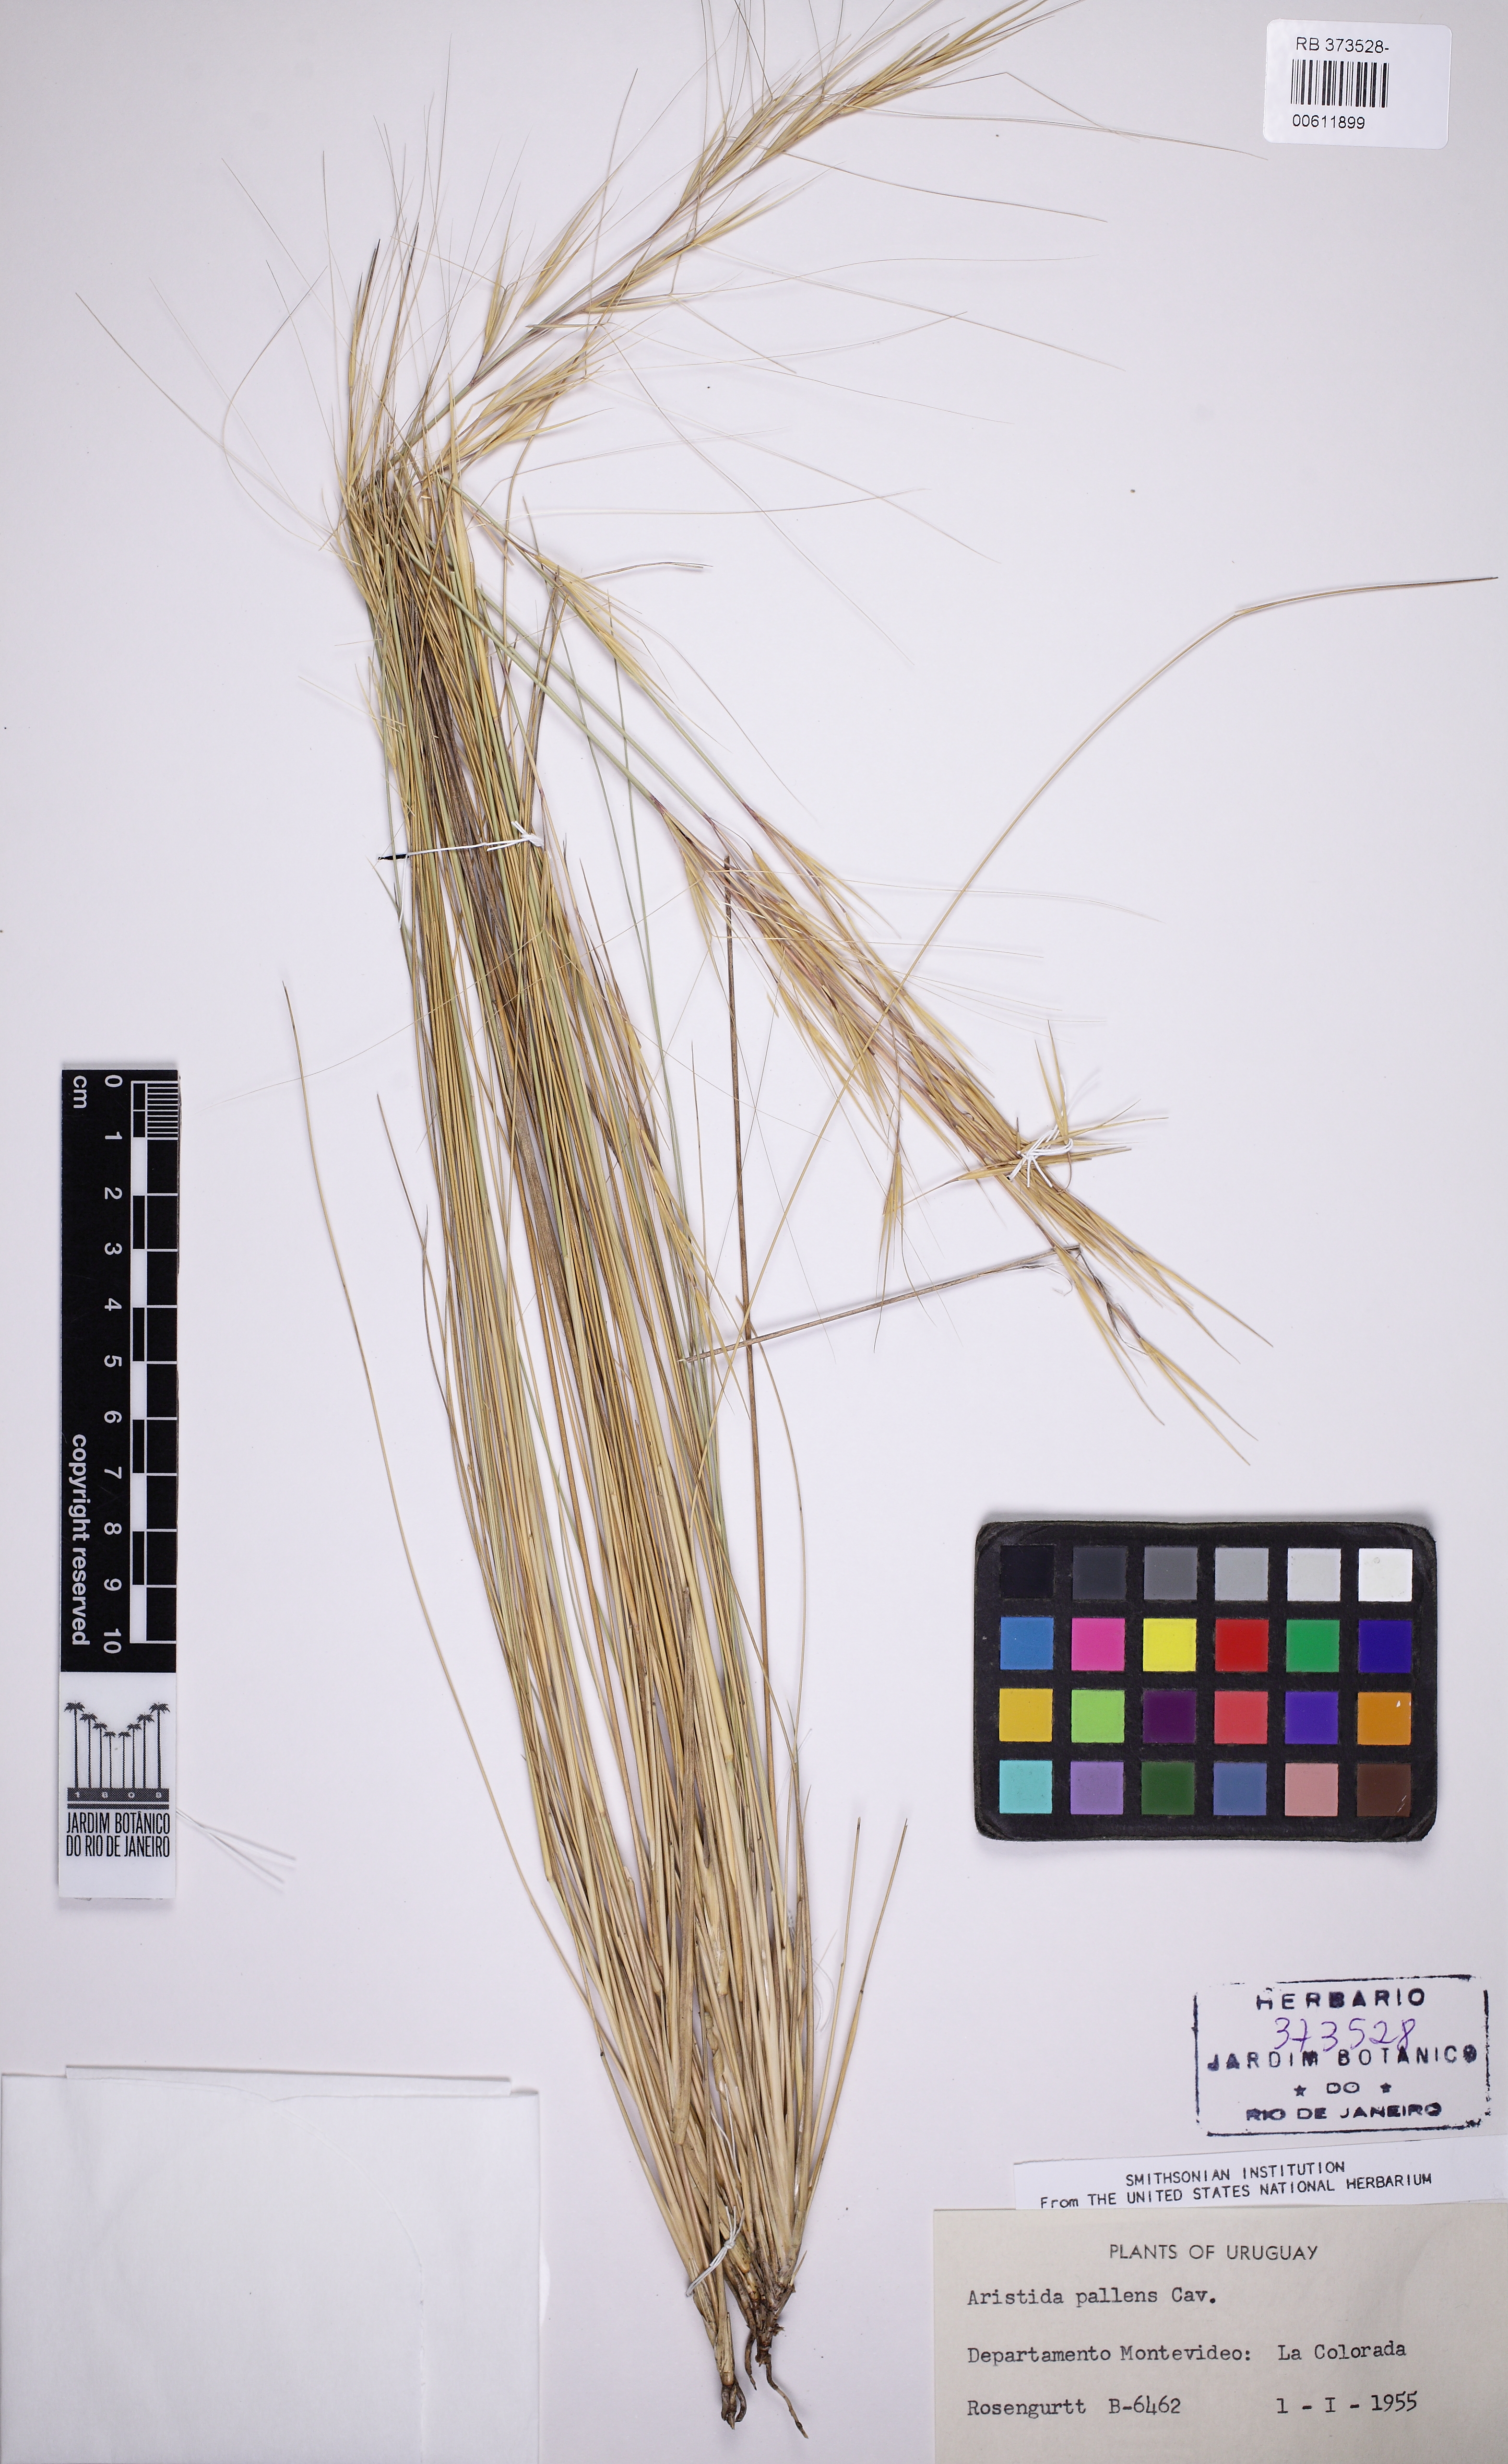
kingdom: Plantae
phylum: Tracheophyta
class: Liliopsida
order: Poales
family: Poaceae
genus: Aristida
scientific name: Aristida pallens
